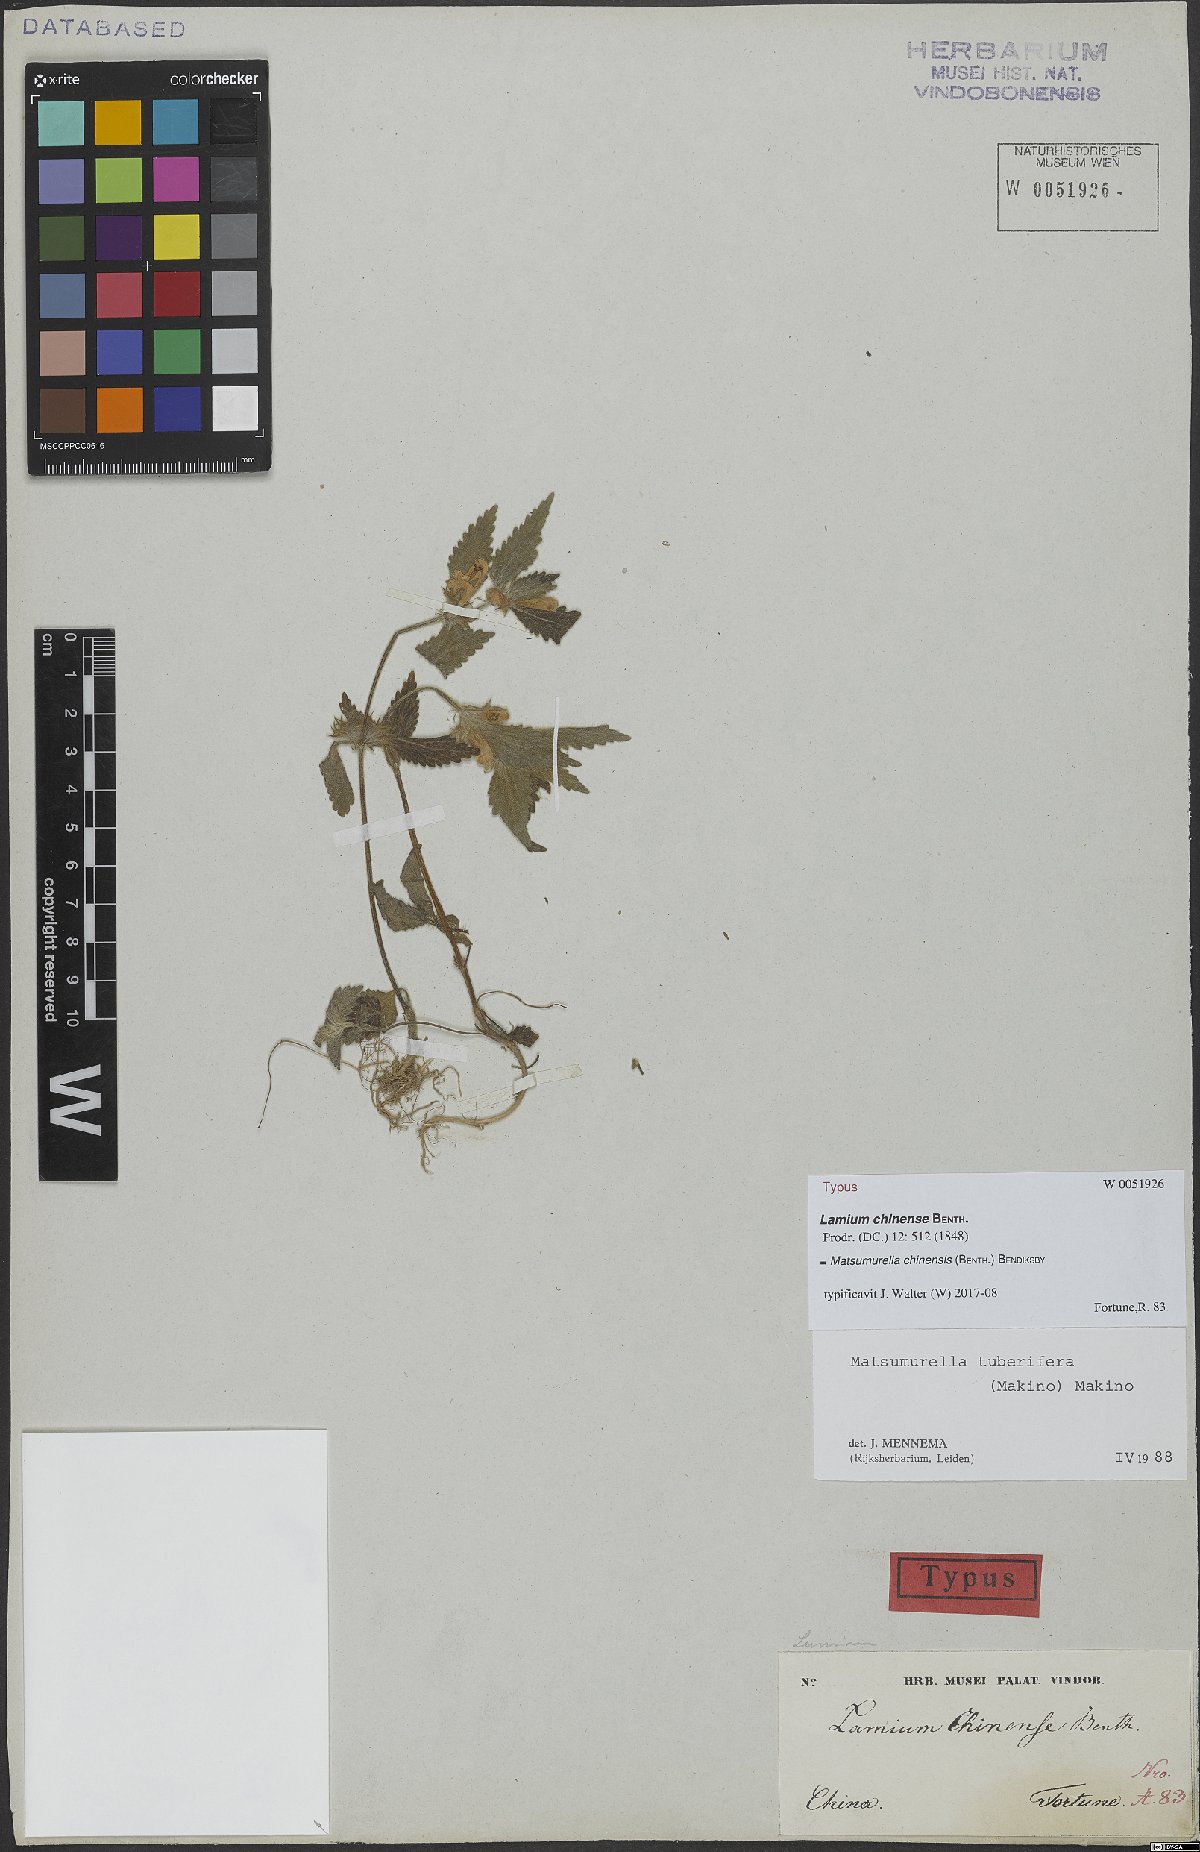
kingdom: Plantae
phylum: Tracheophyta
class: Magnoliopsida
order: Lamiales
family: Lamiaceae
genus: Matsumurella
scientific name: Matsumurella chinensis
